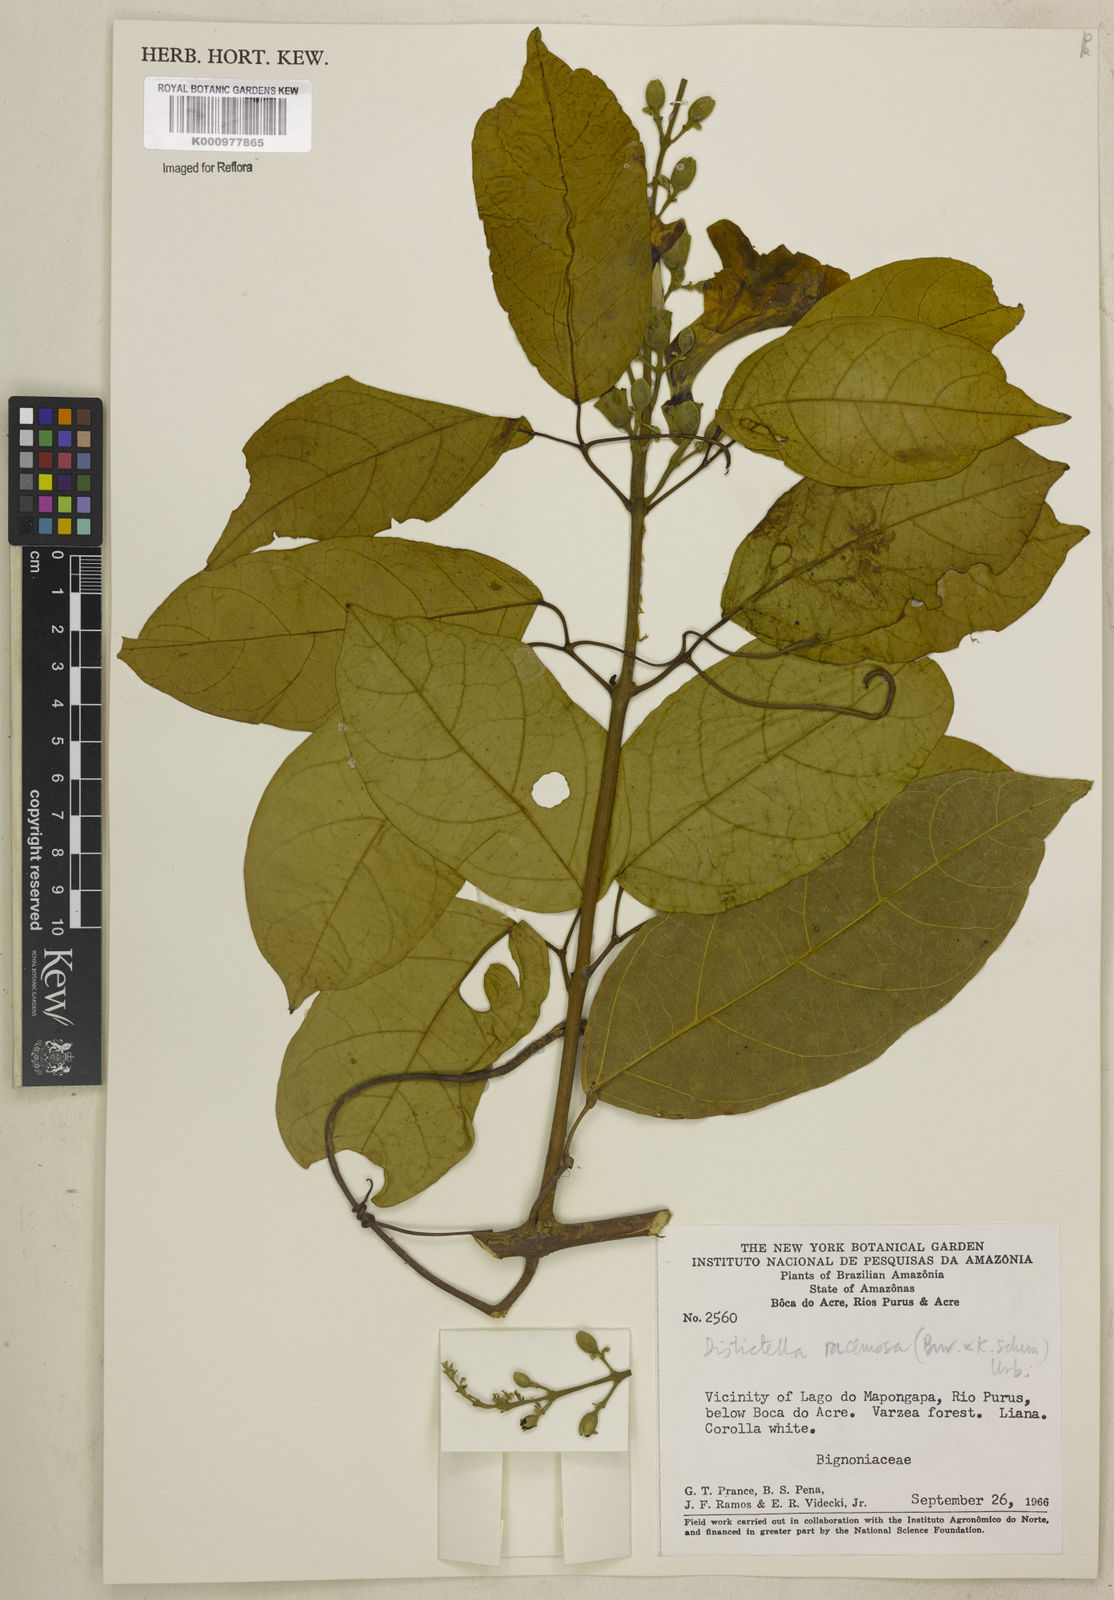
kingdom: Plantae
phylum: Tracheophyta
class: Magnoliopsida
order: Lamiales
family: Bignoniaceae
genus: Amphilophium
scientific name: Amphilophium racemosum
